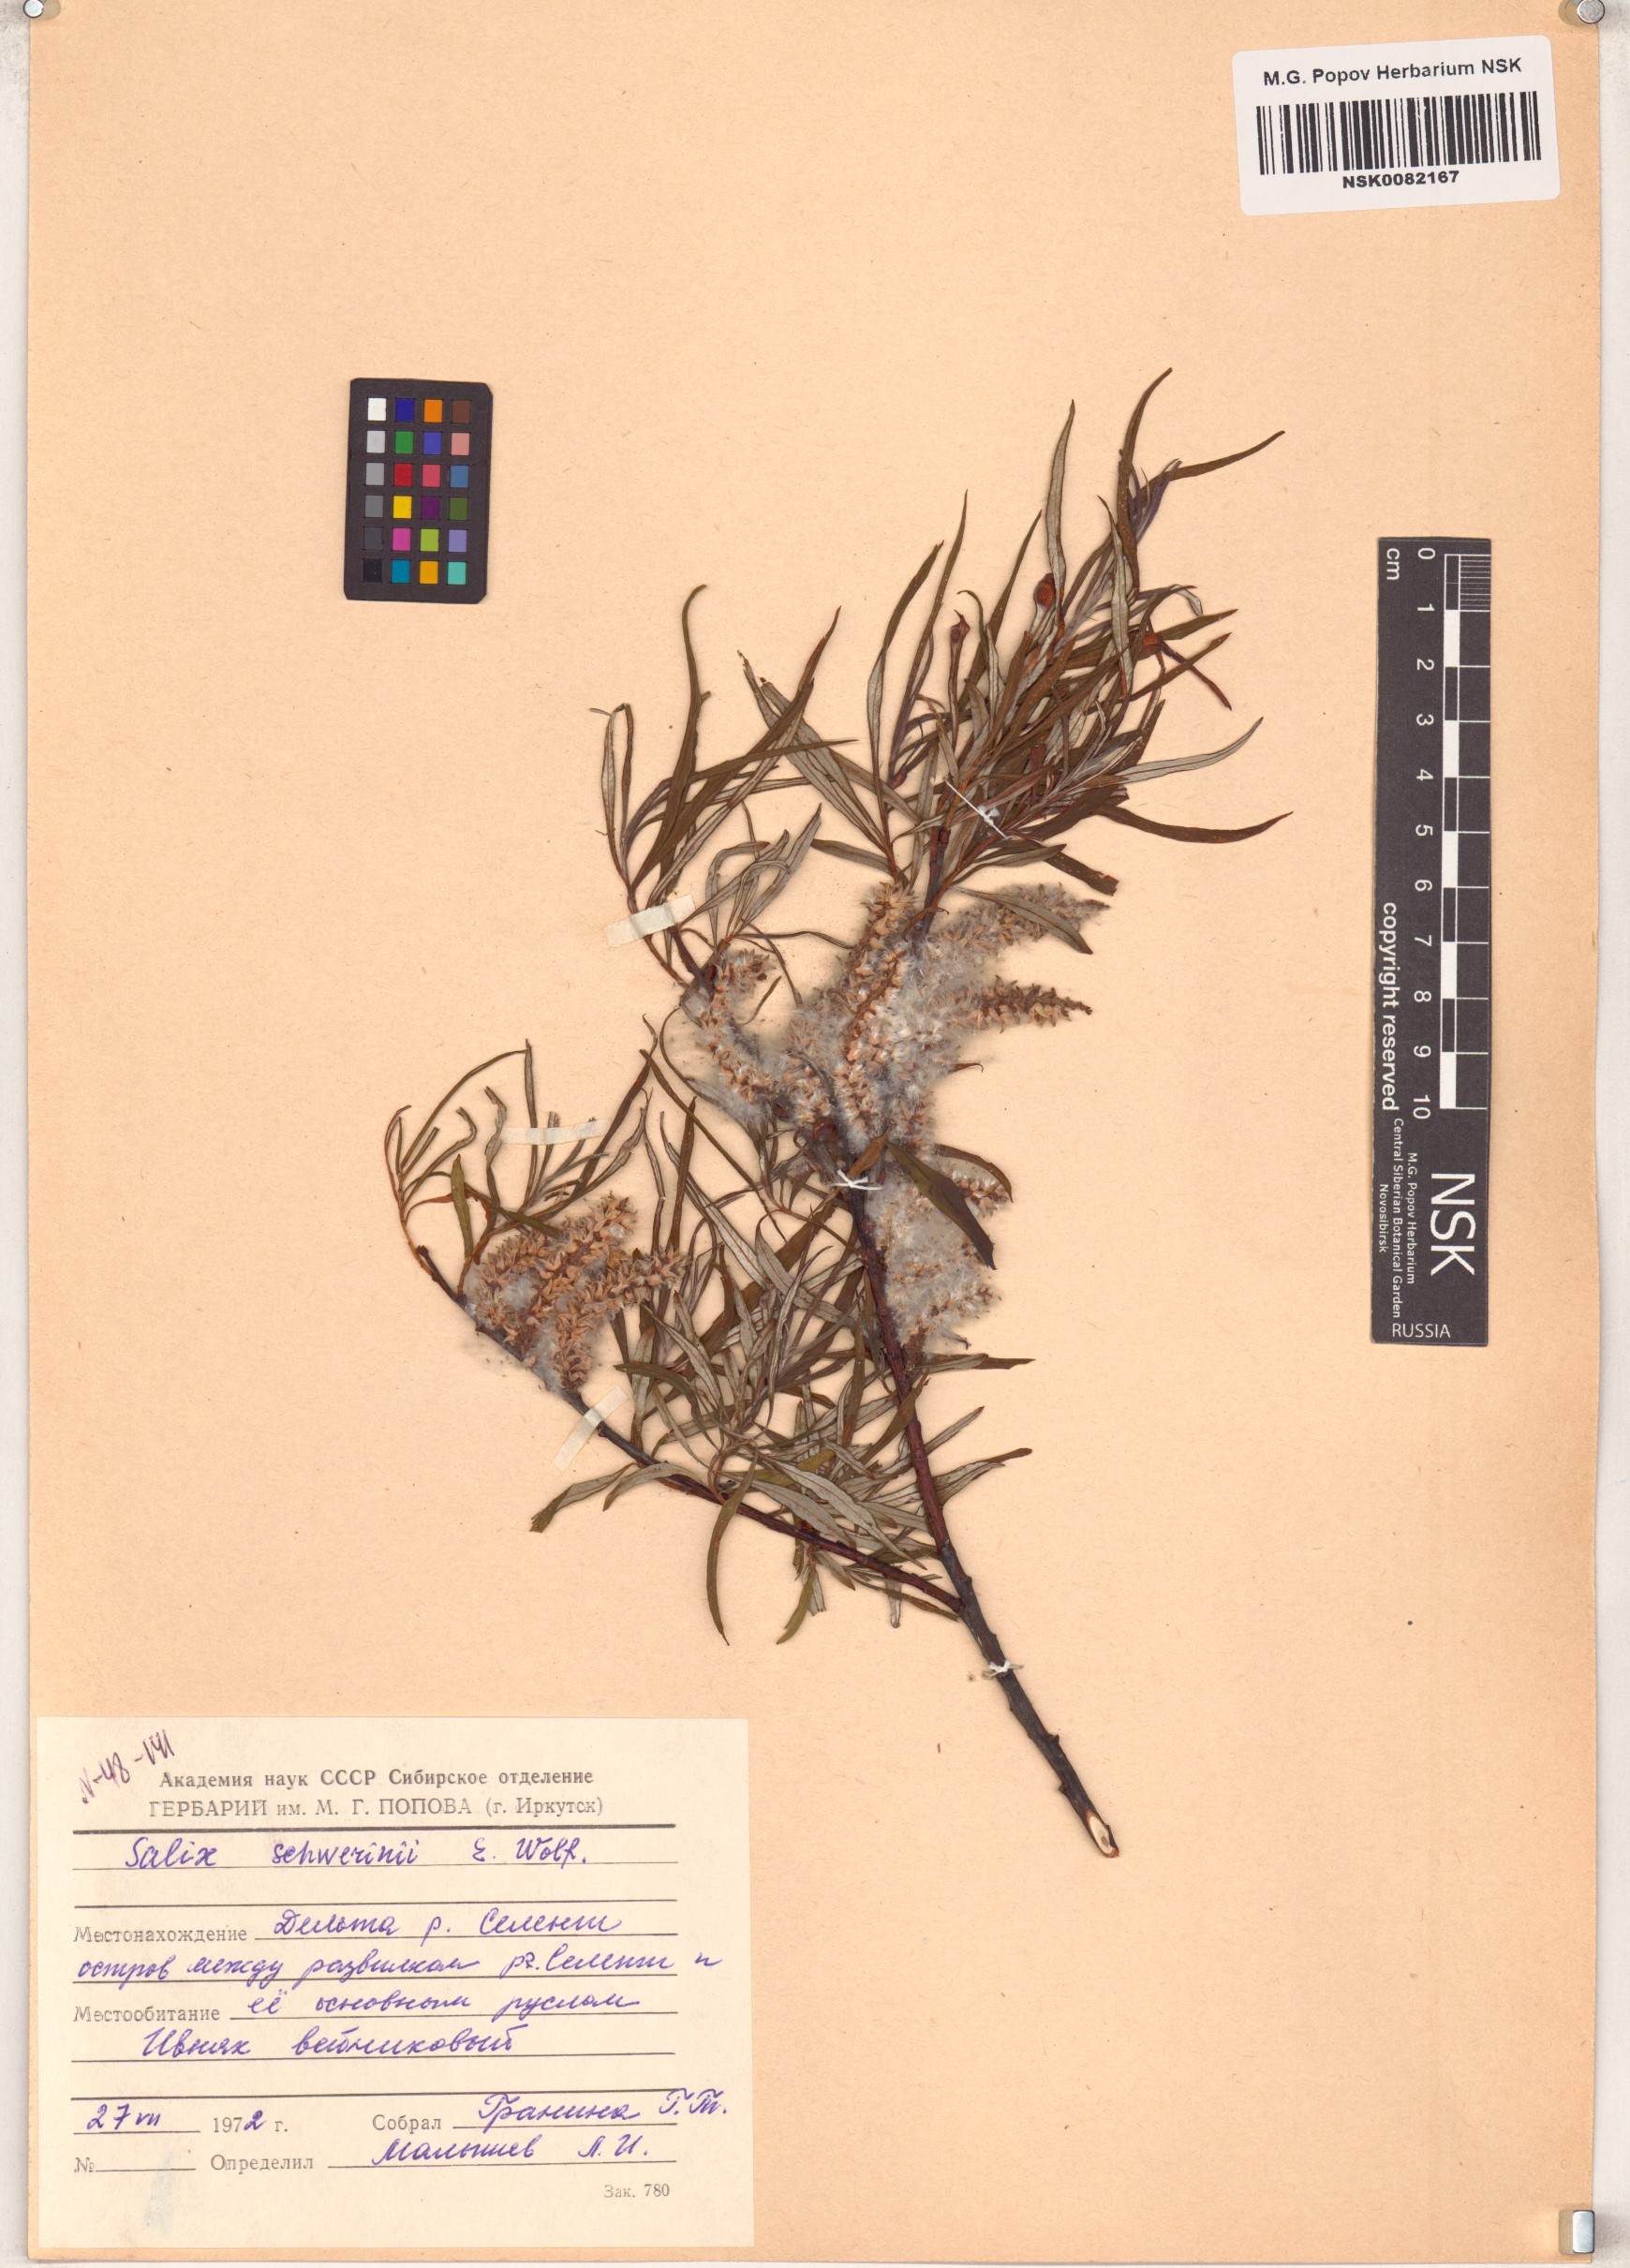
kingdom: Plantae
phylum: Tracheophyta
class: Magnoliopsida
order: Malpighiales
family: Salicaceae
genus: Salix
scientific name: Salix schwerinii
